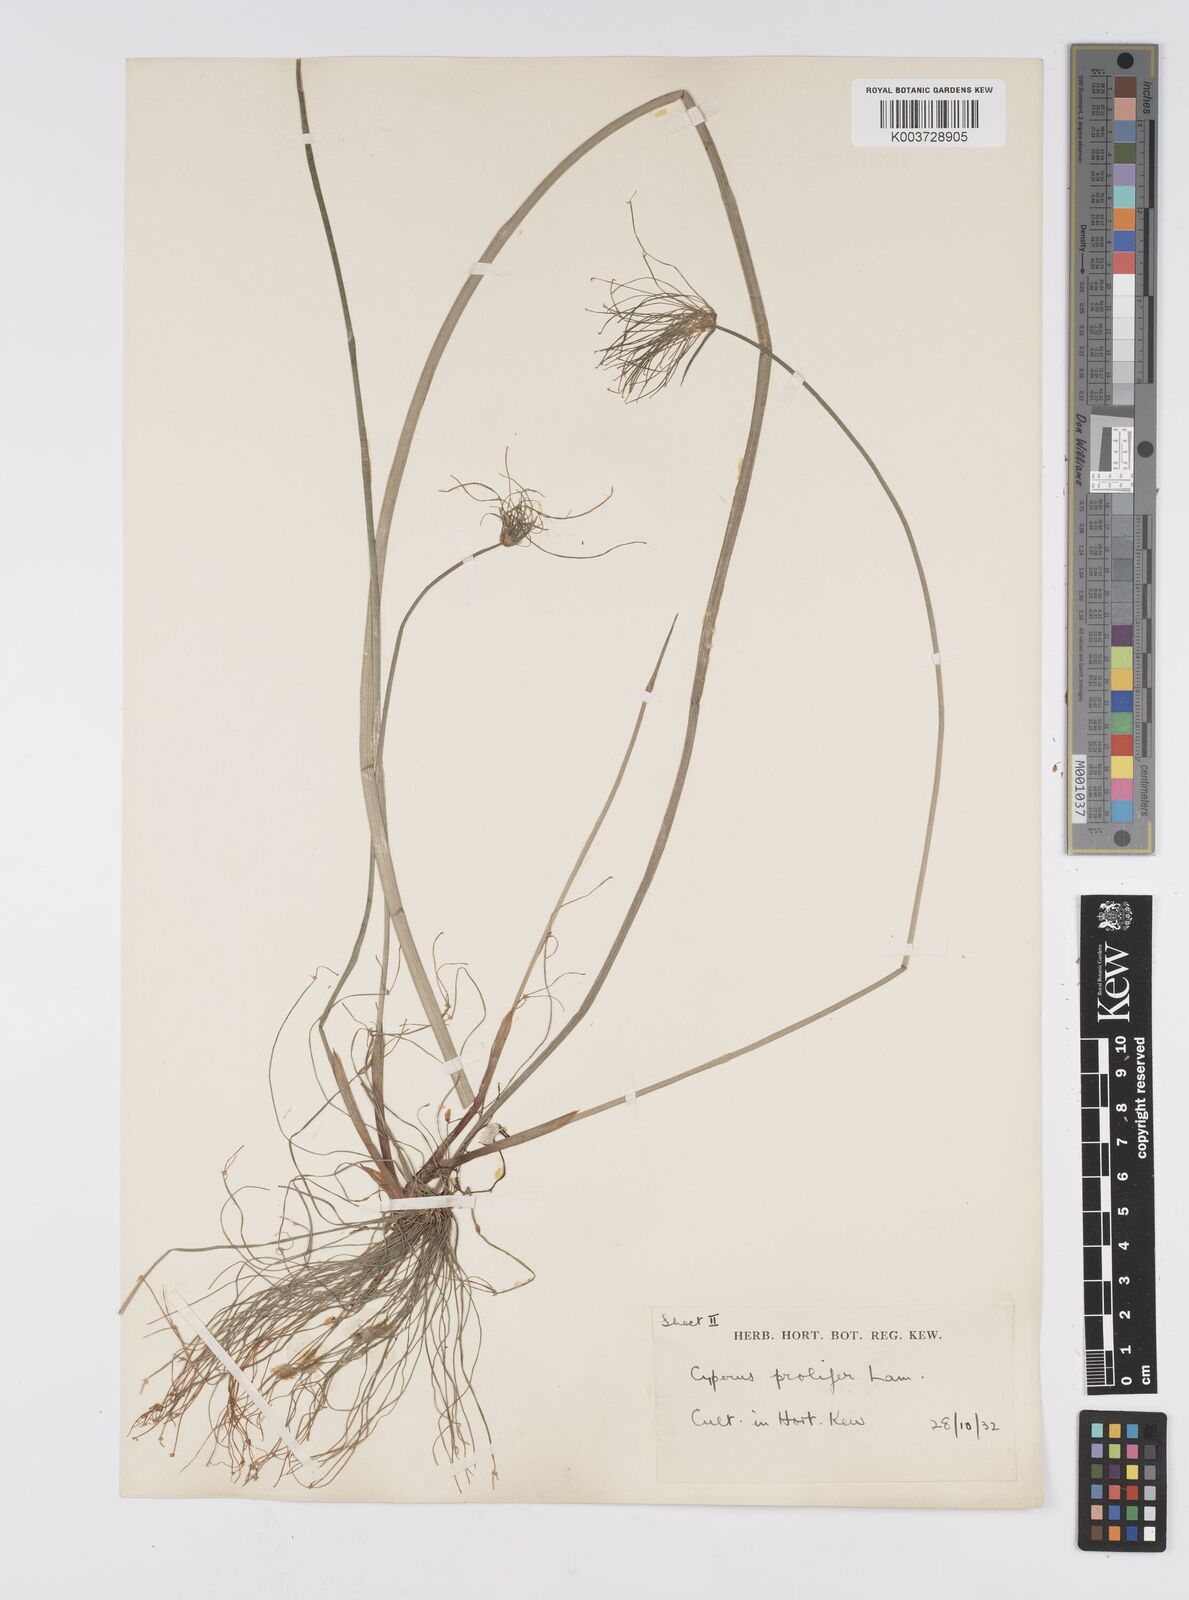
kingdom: Plantae
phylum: Tracheophyta
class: Liliopsida
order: Poales
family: Cyperaceae
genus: Cyperus
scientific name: Cyperus prolifer
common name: Miniature flatsedge
